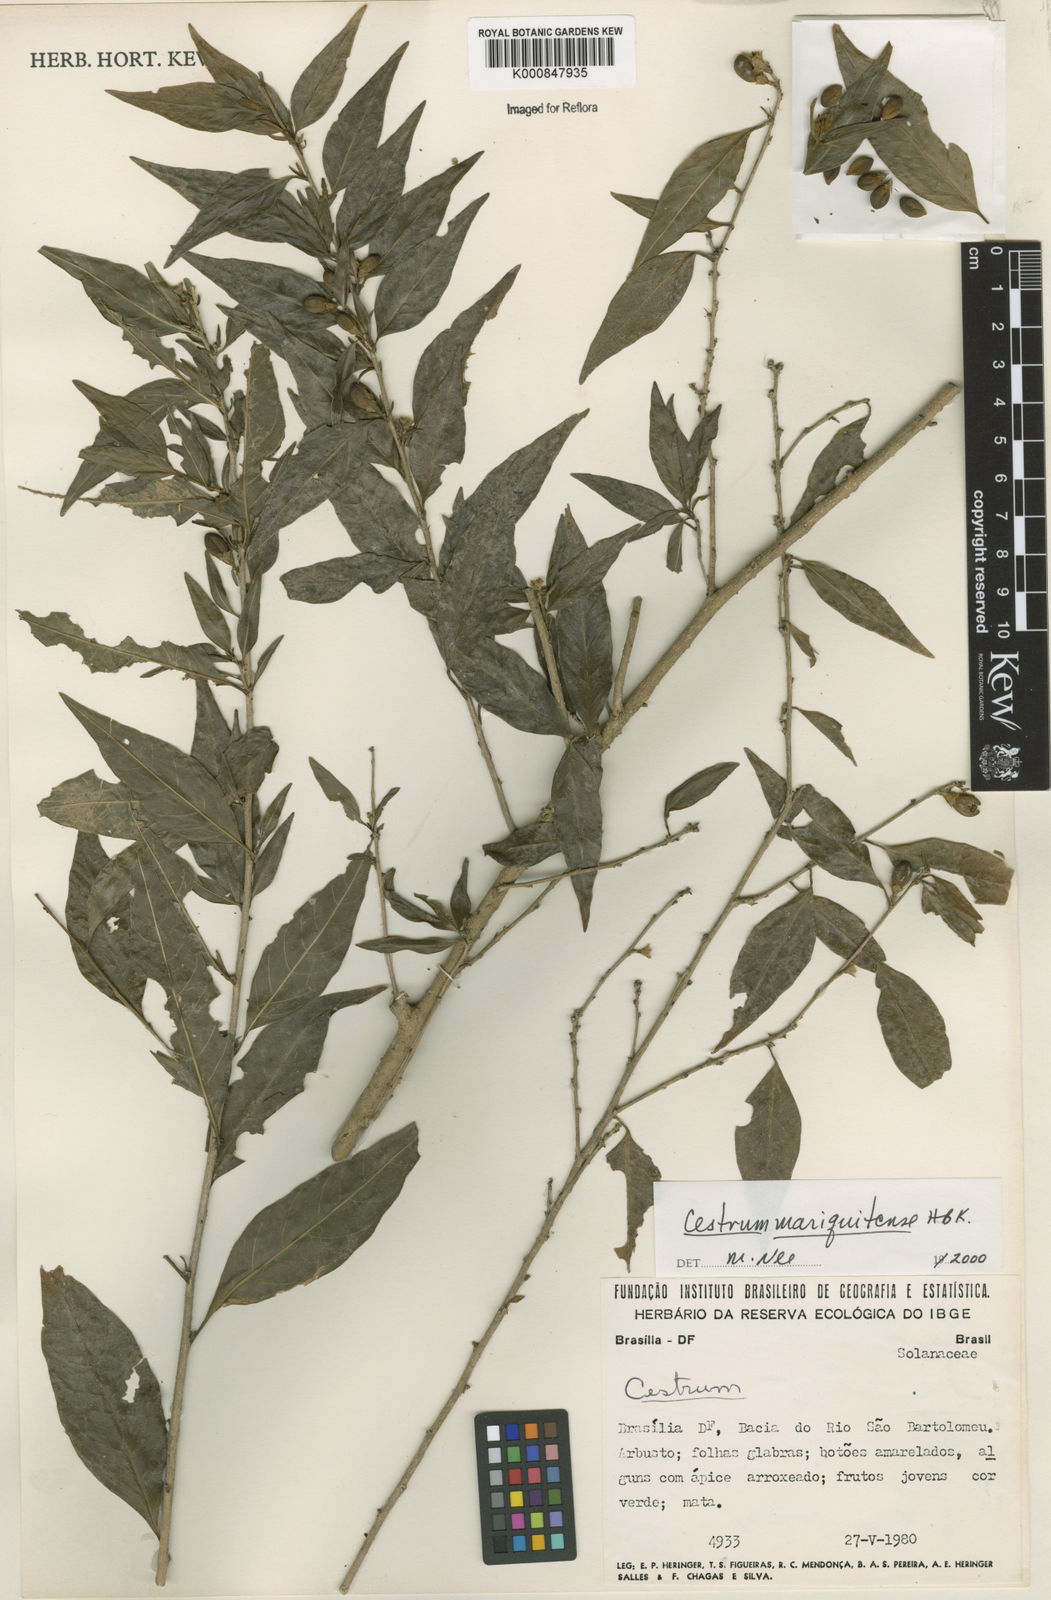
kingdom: Plantae
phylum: Tracheophyta
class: Magnoliopsida
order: Solanales
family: Solanaceae
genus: Cestrum
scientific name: Cestrum mariquitense
